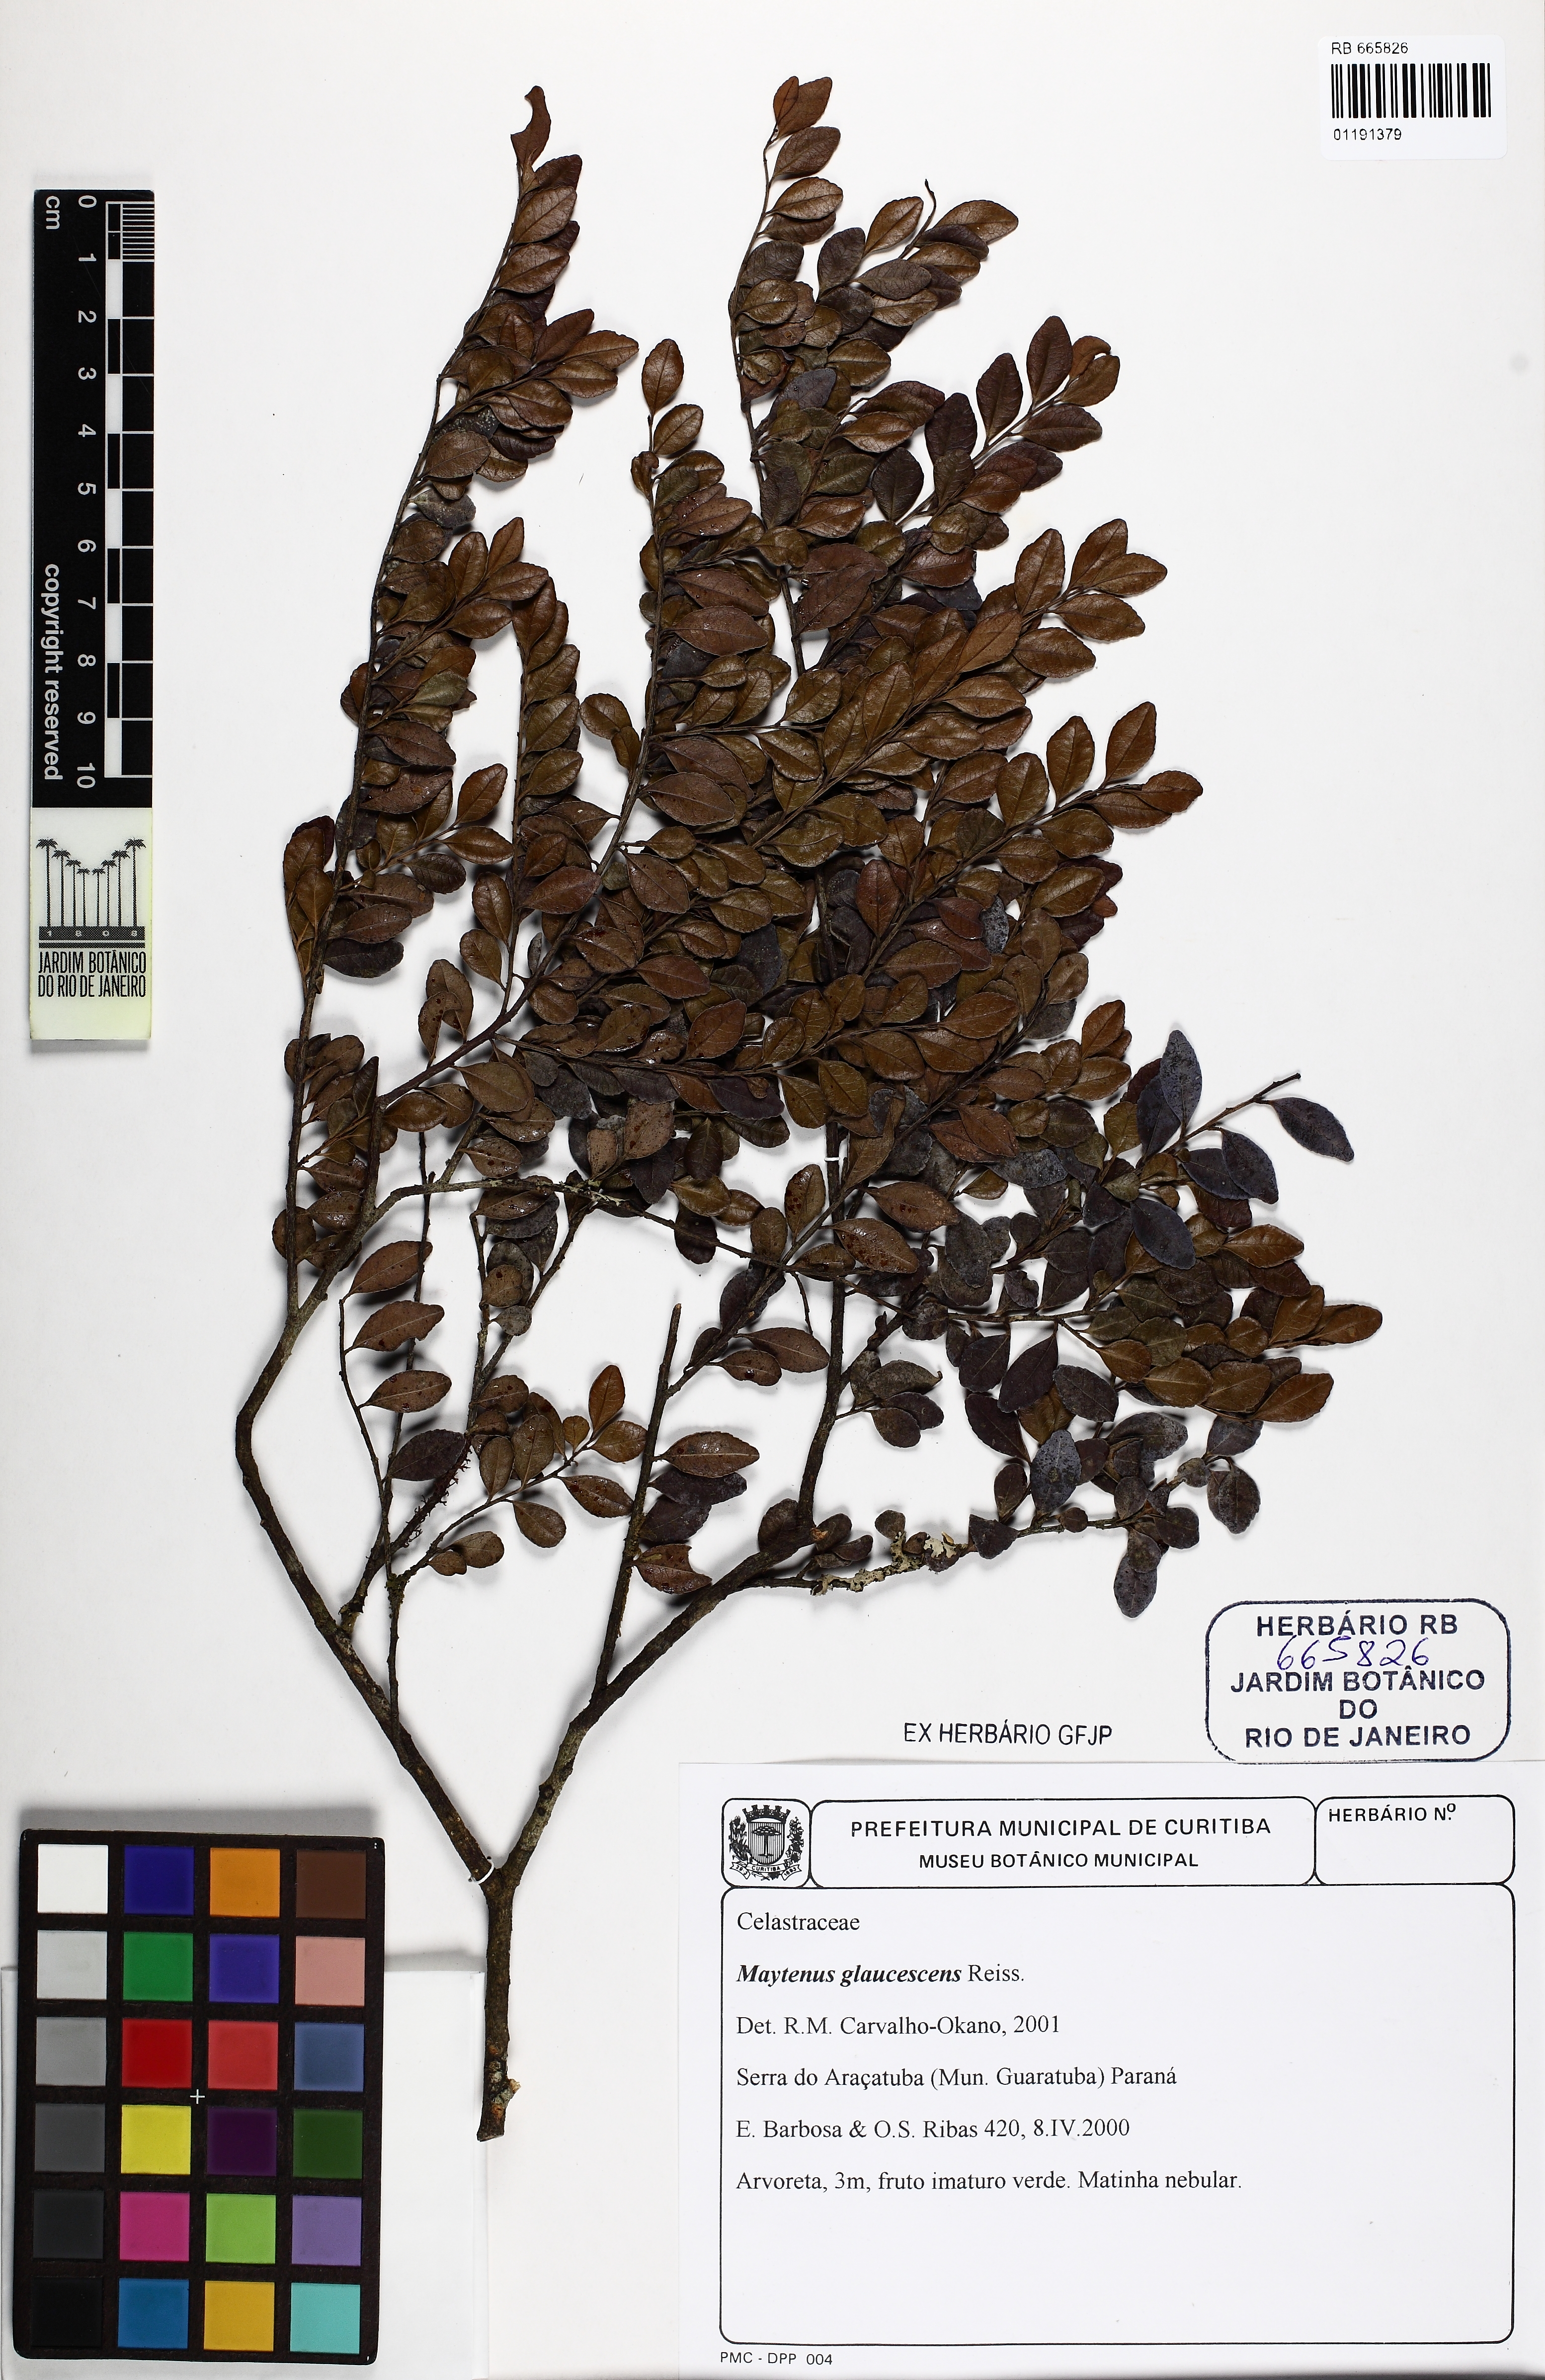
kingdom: Plantae
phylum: Tracheophyta
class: Magnoliopsida
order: Celastrales
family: Celastraceae
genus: Monteverdia
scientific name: Monteverdia glaucescens
